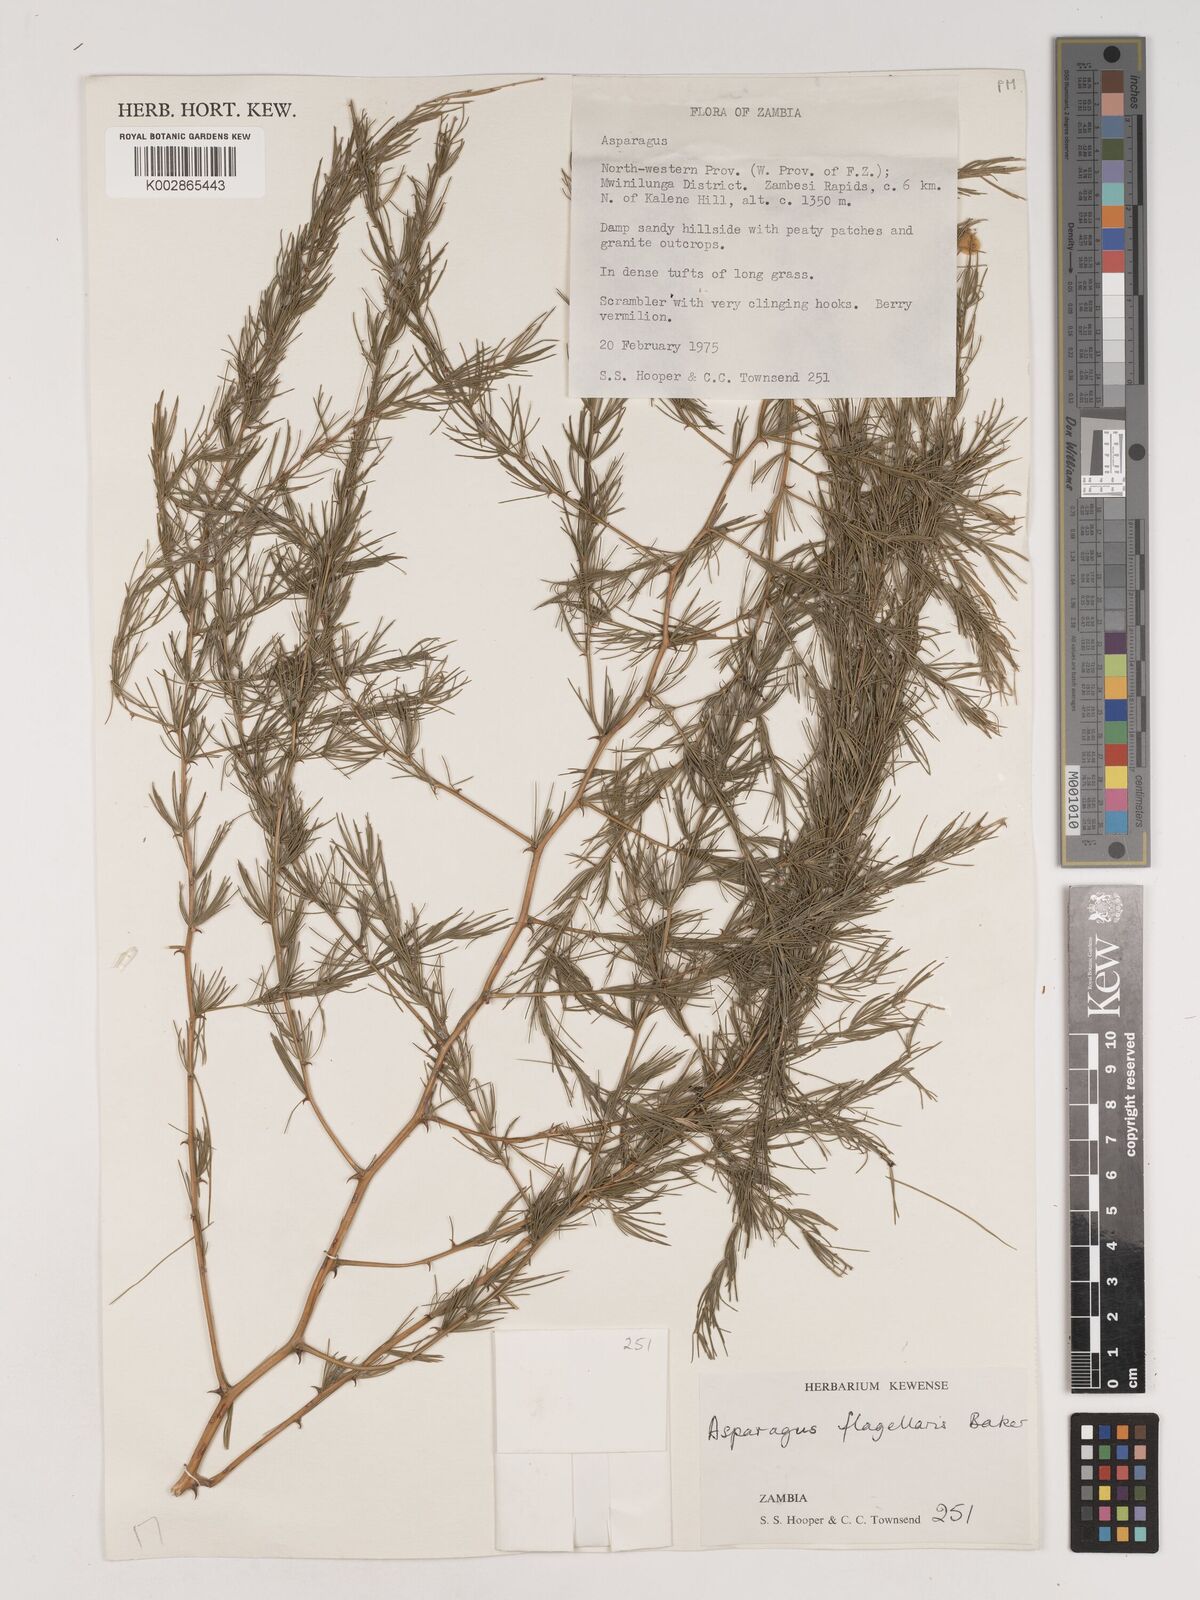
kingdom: Plantae
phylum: Tracheophyta
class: Liliopsida
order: Asparagales
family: Asparagaceae
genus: Asparagus
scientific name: Asparagus flagellaris
